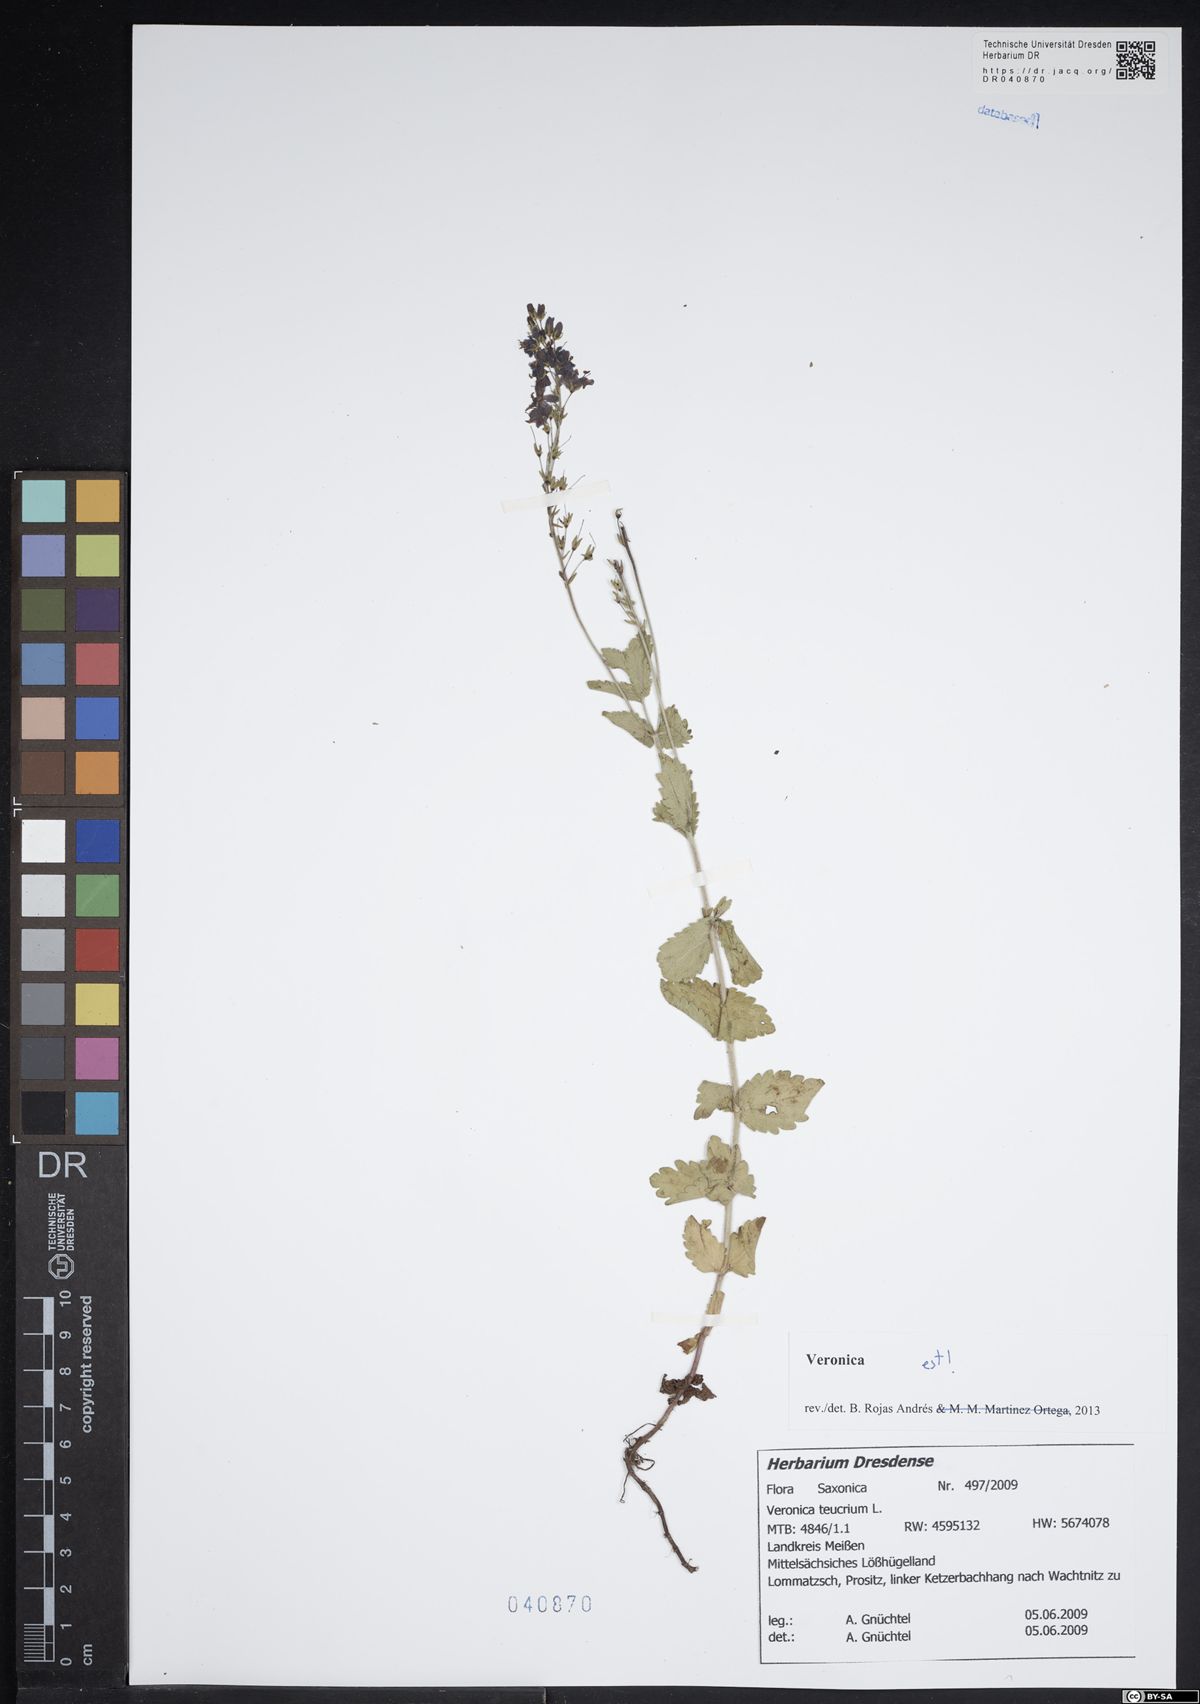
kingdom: Plantae
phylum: Tracheophyta
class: Magnoliopsida
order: Lamiales
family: Plantaginaceae
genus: Veronica
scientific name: Veronica teucrium
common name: Large speedwell
